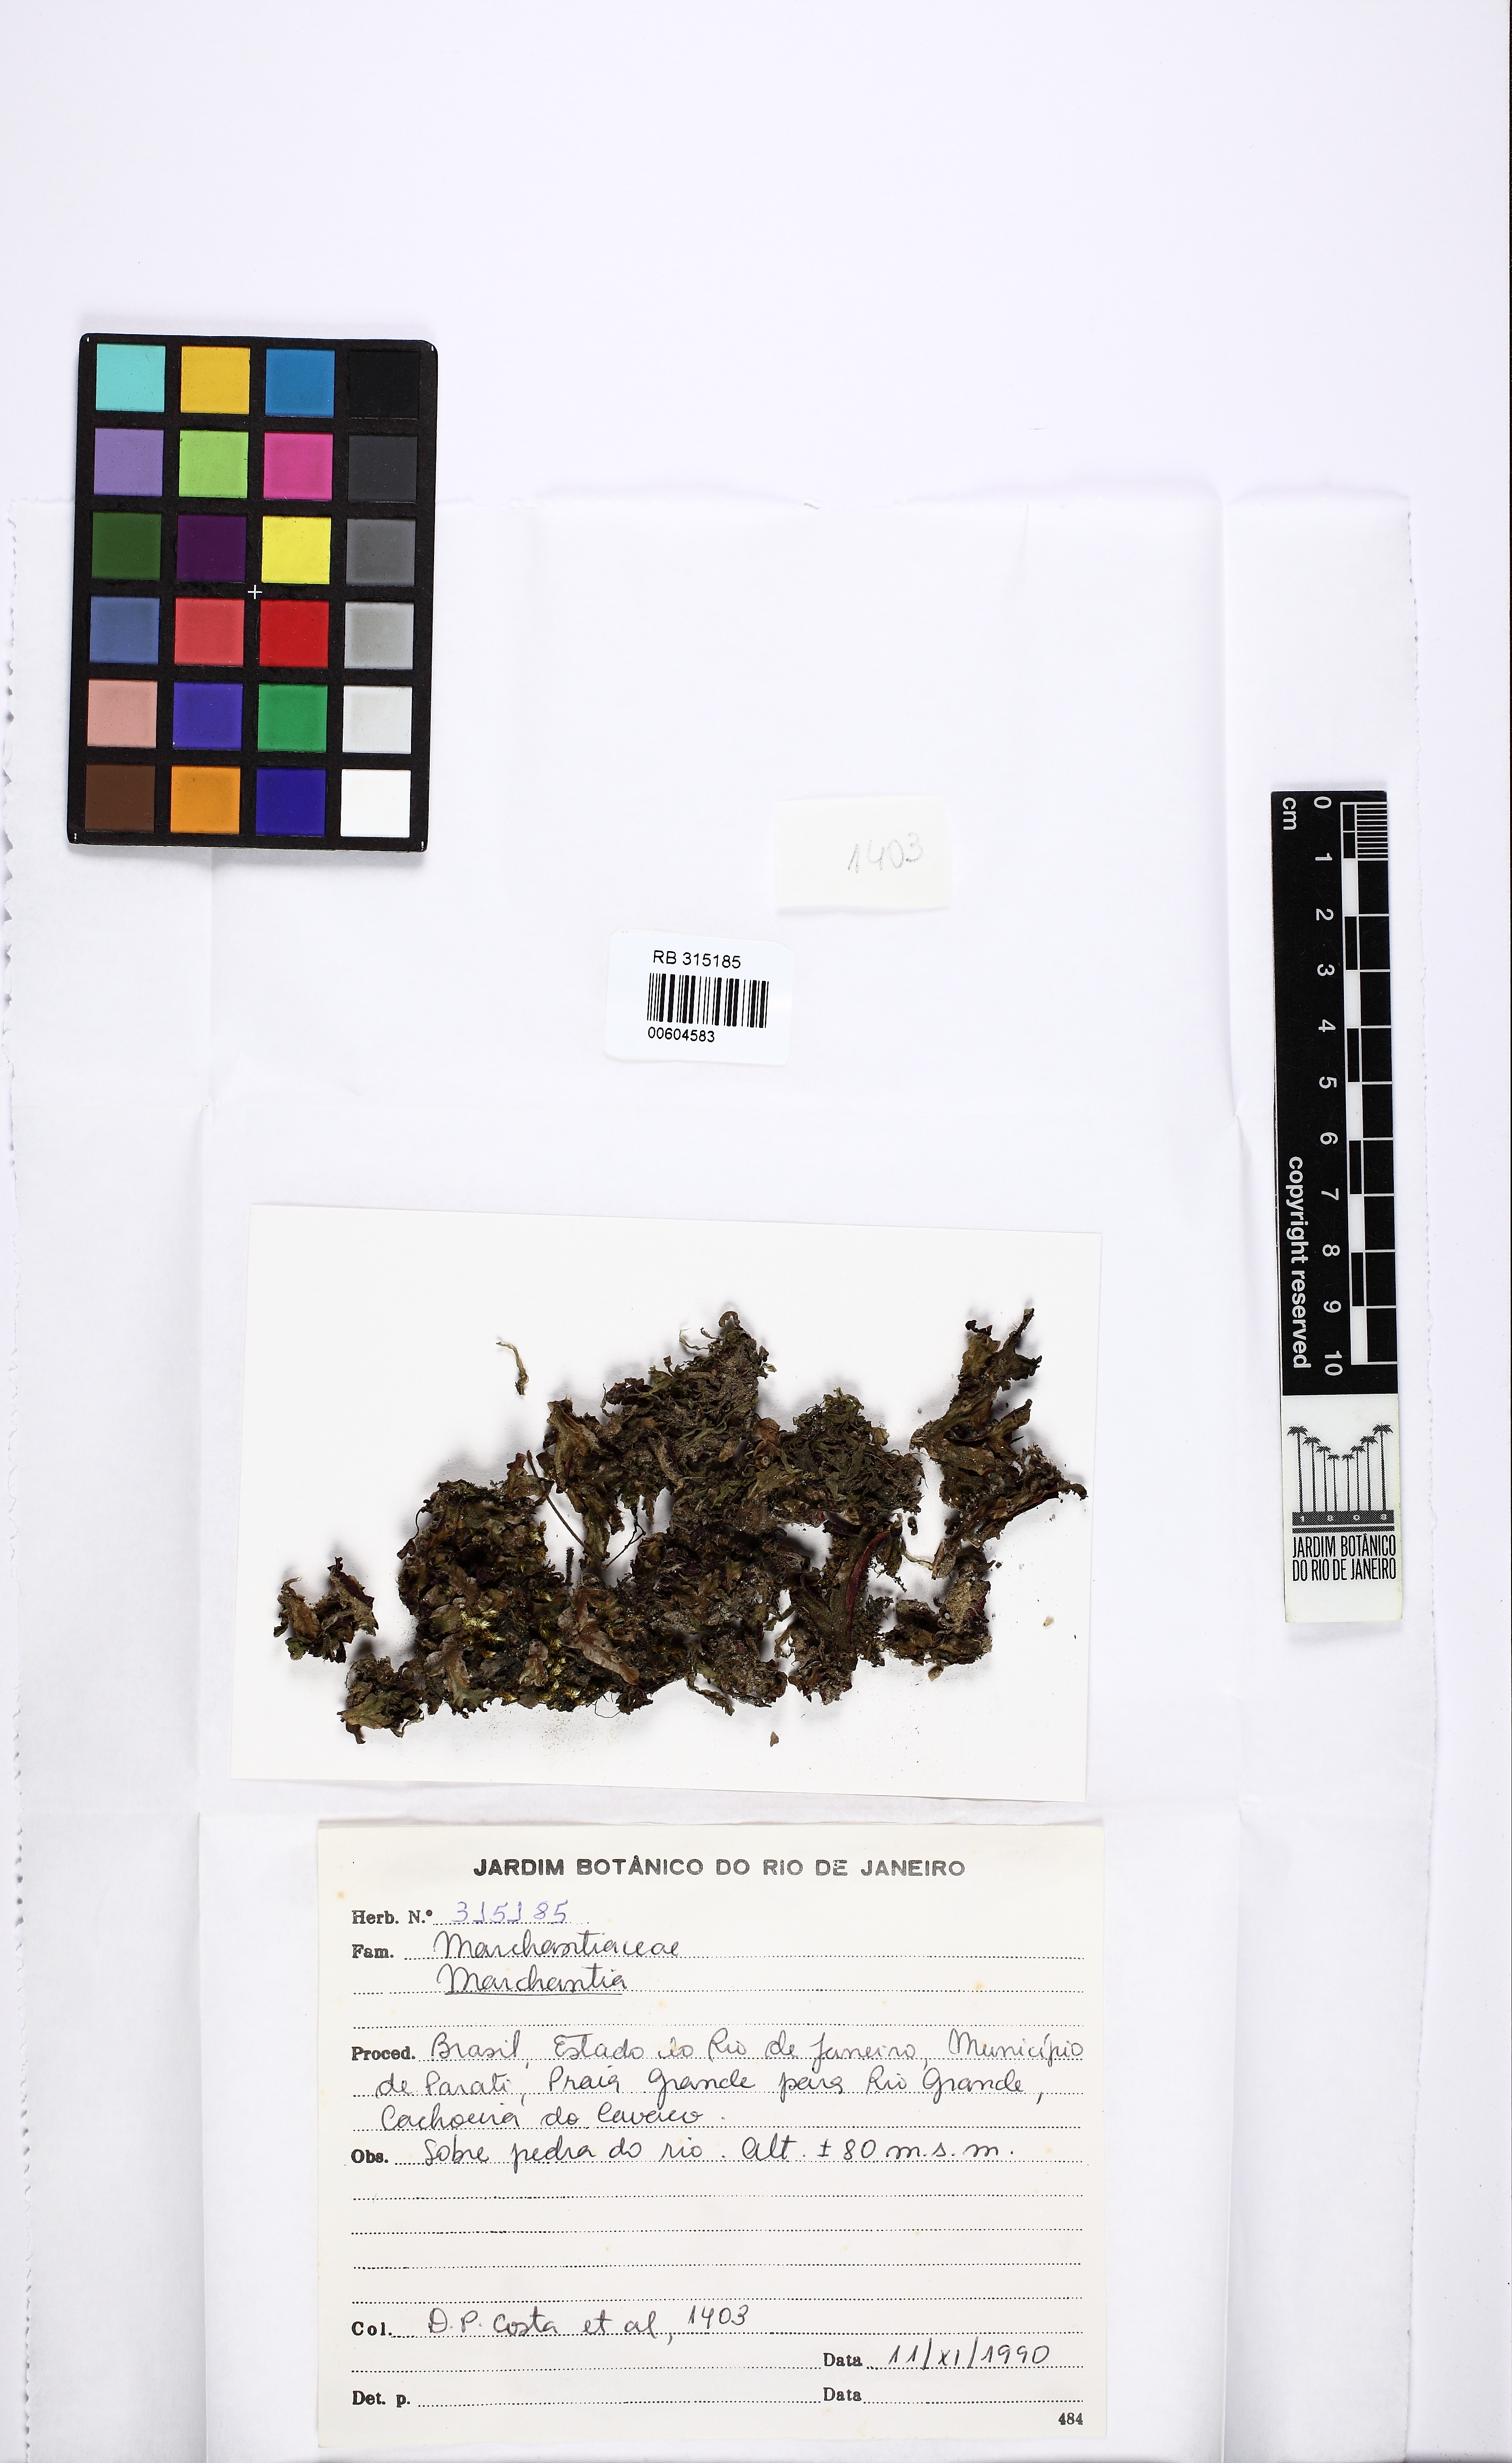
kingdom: Plantae
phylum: Marchantiophyta
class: Marchantiopsida
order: Marchantiales
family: Marchantiaceae
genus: Marchantia
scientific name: Marchantia
